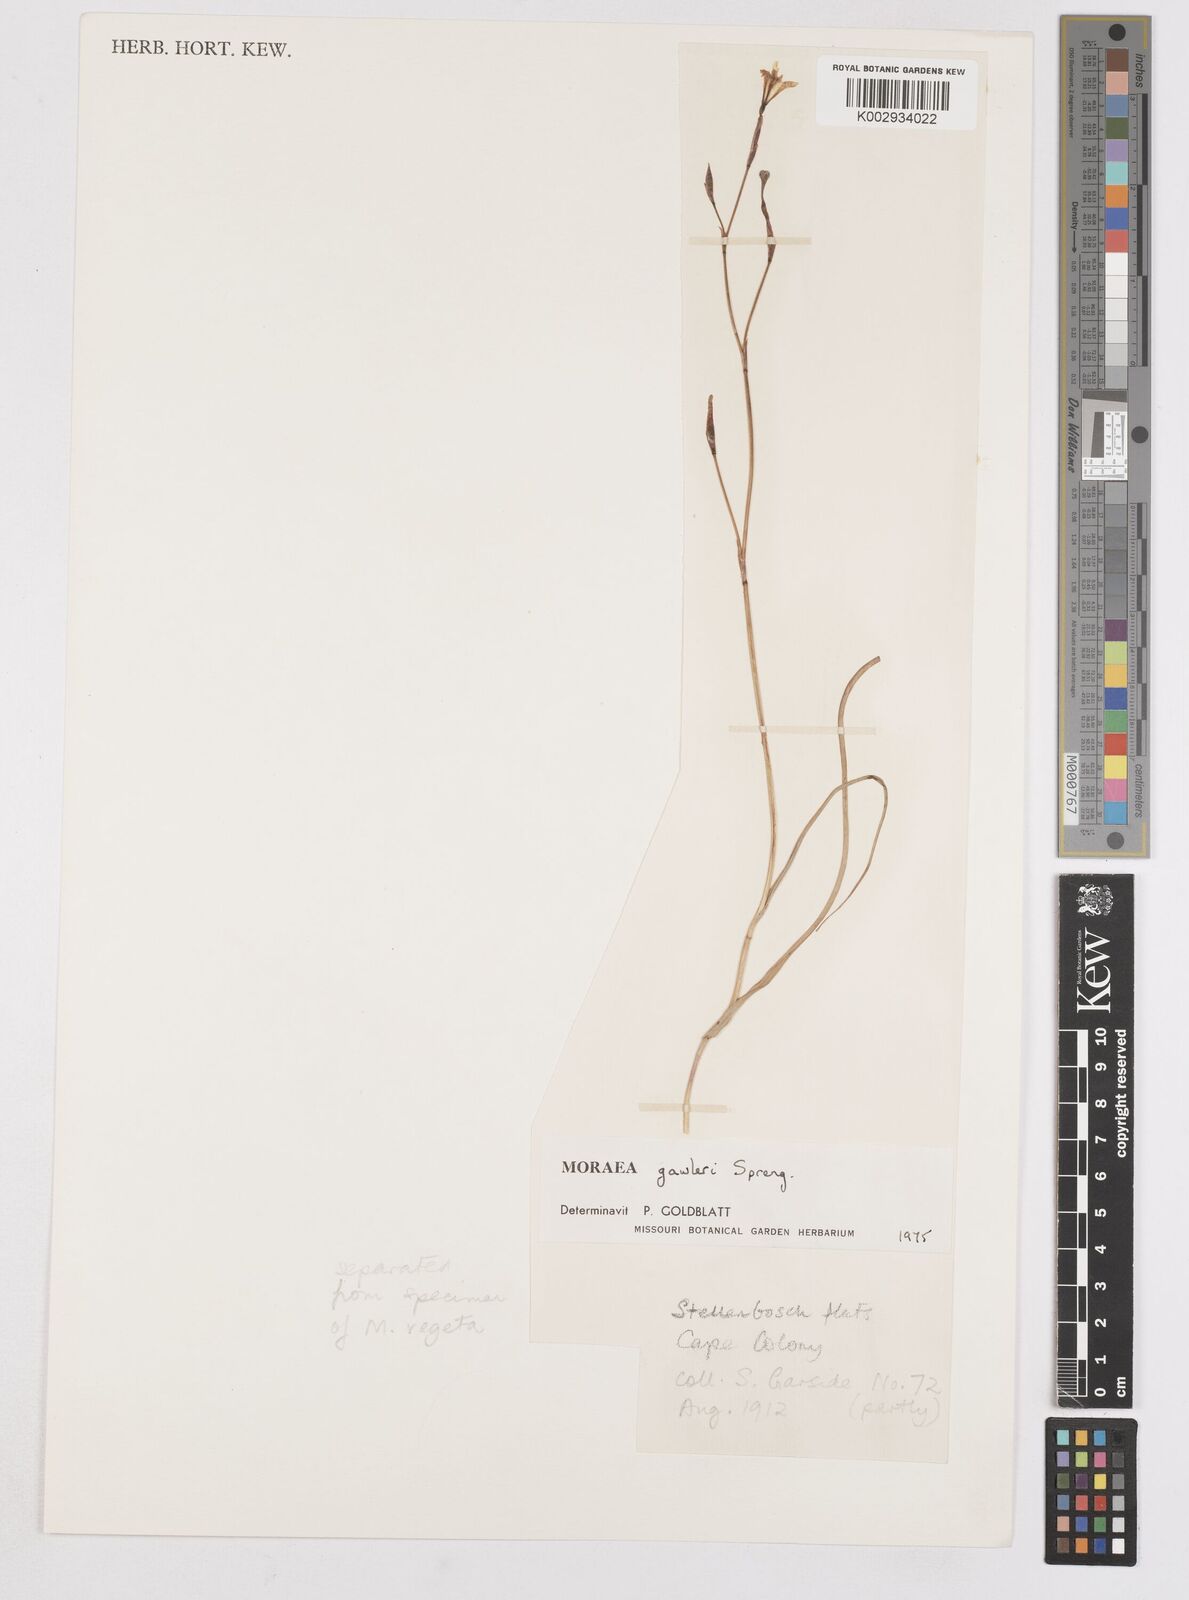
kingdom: Plantae
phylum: Tracheophyta
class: Liliopsida
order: Asparagales
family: Iridaceae
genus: Moraea
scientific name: Moraea gawleri
